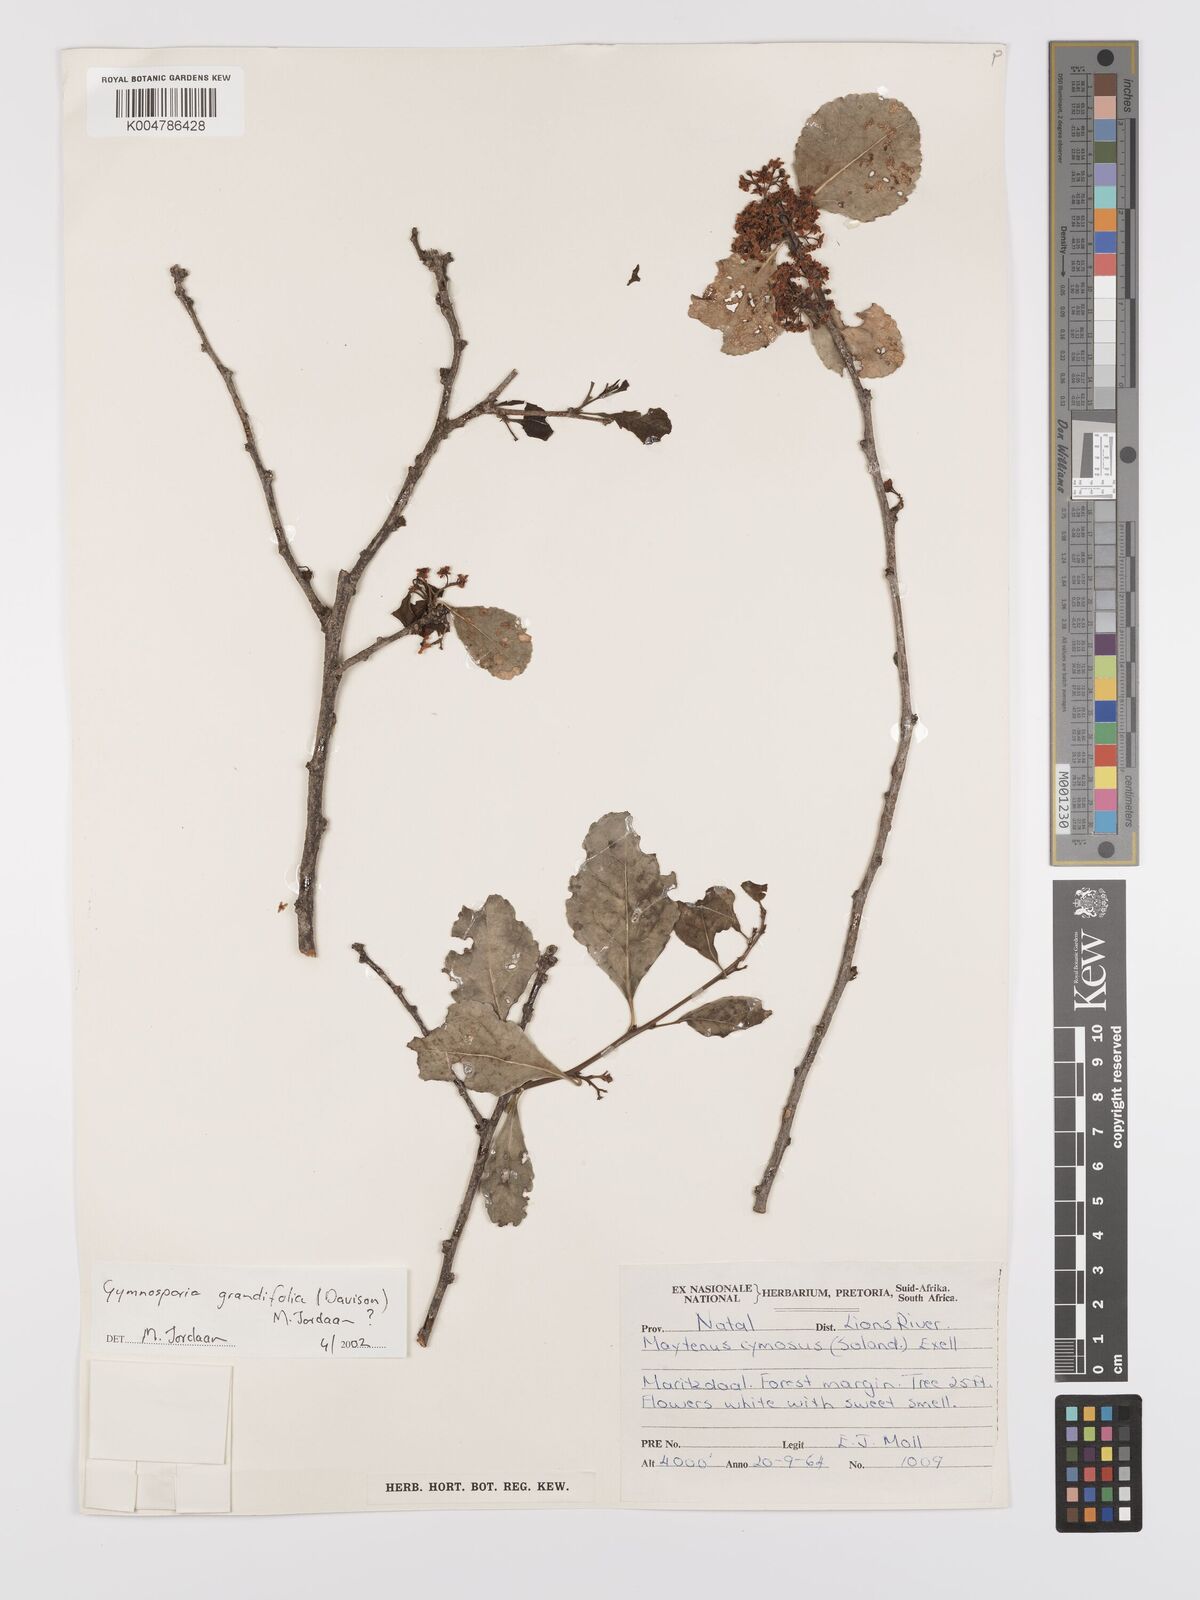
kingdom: Plantae
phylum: Tracheophyta
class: Magnoliopsida
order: Celastrales
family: Celastraceae
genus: Gymnosporia
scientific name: Gymnosporia grandifolia
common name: Large-fruited forest spike-thorn
